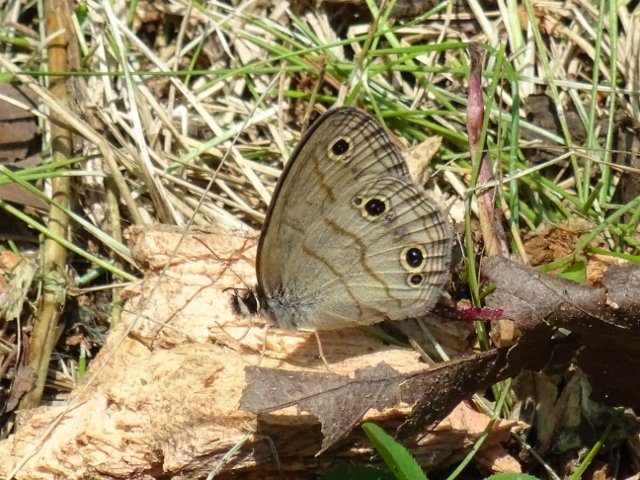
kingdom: Animalia
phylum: Arthropoda
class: Insecta
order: Lepidoptera
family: Nymphalidae
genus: Euptychia
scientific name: Euptychia cymela
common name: Little Wood Satyr
